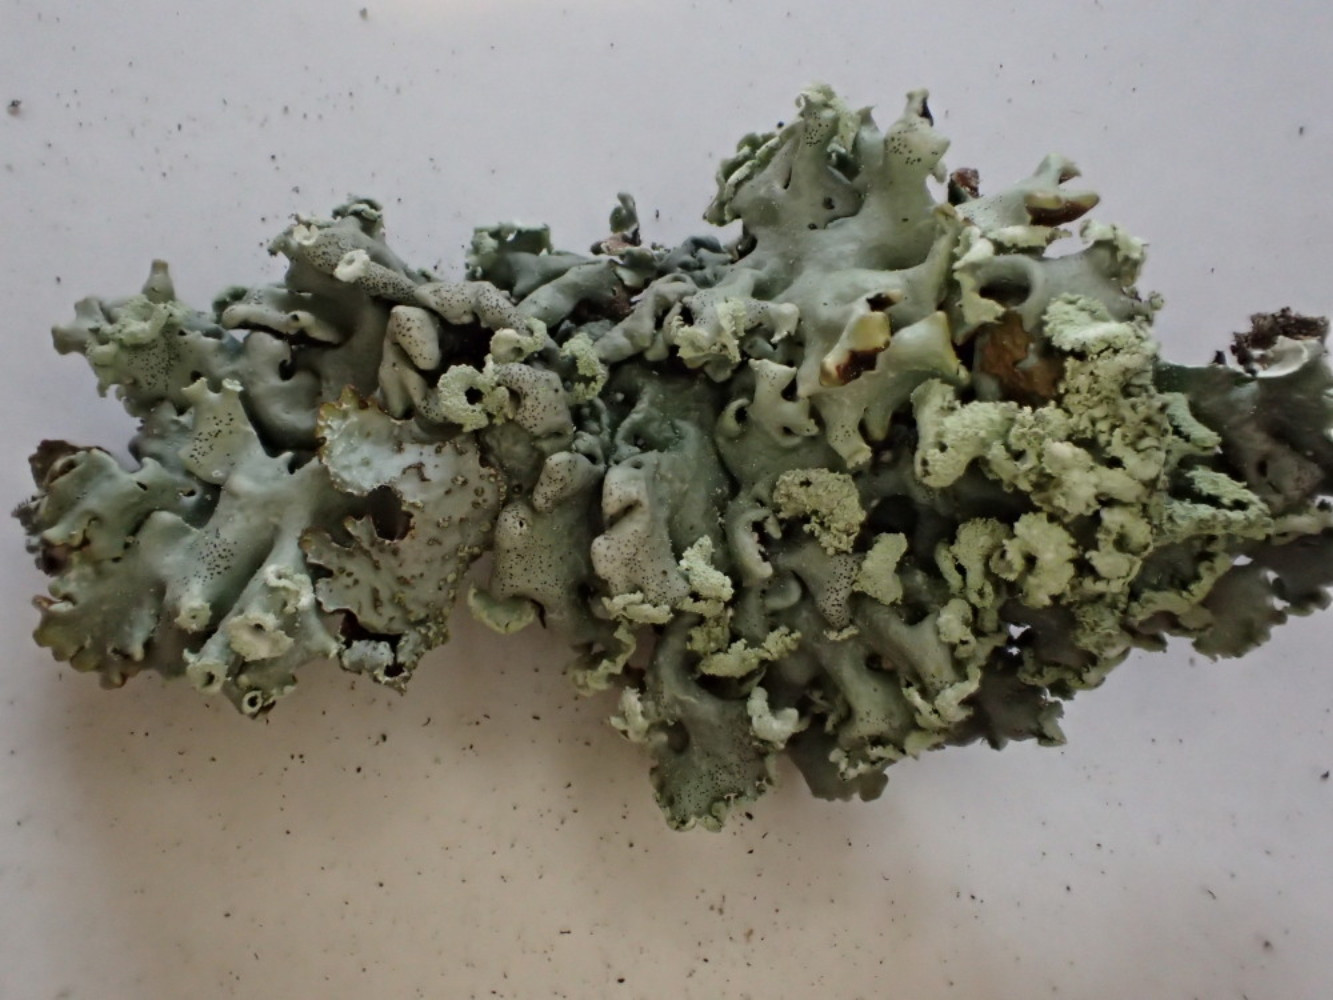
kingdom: Fungi
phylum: Ascomycota
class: Lecanoromycetes
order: Lecanorales
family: Parmeliaceae
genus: Hypogymnia
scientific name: Hypogymnia physodes
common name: almindelig kvistlav
